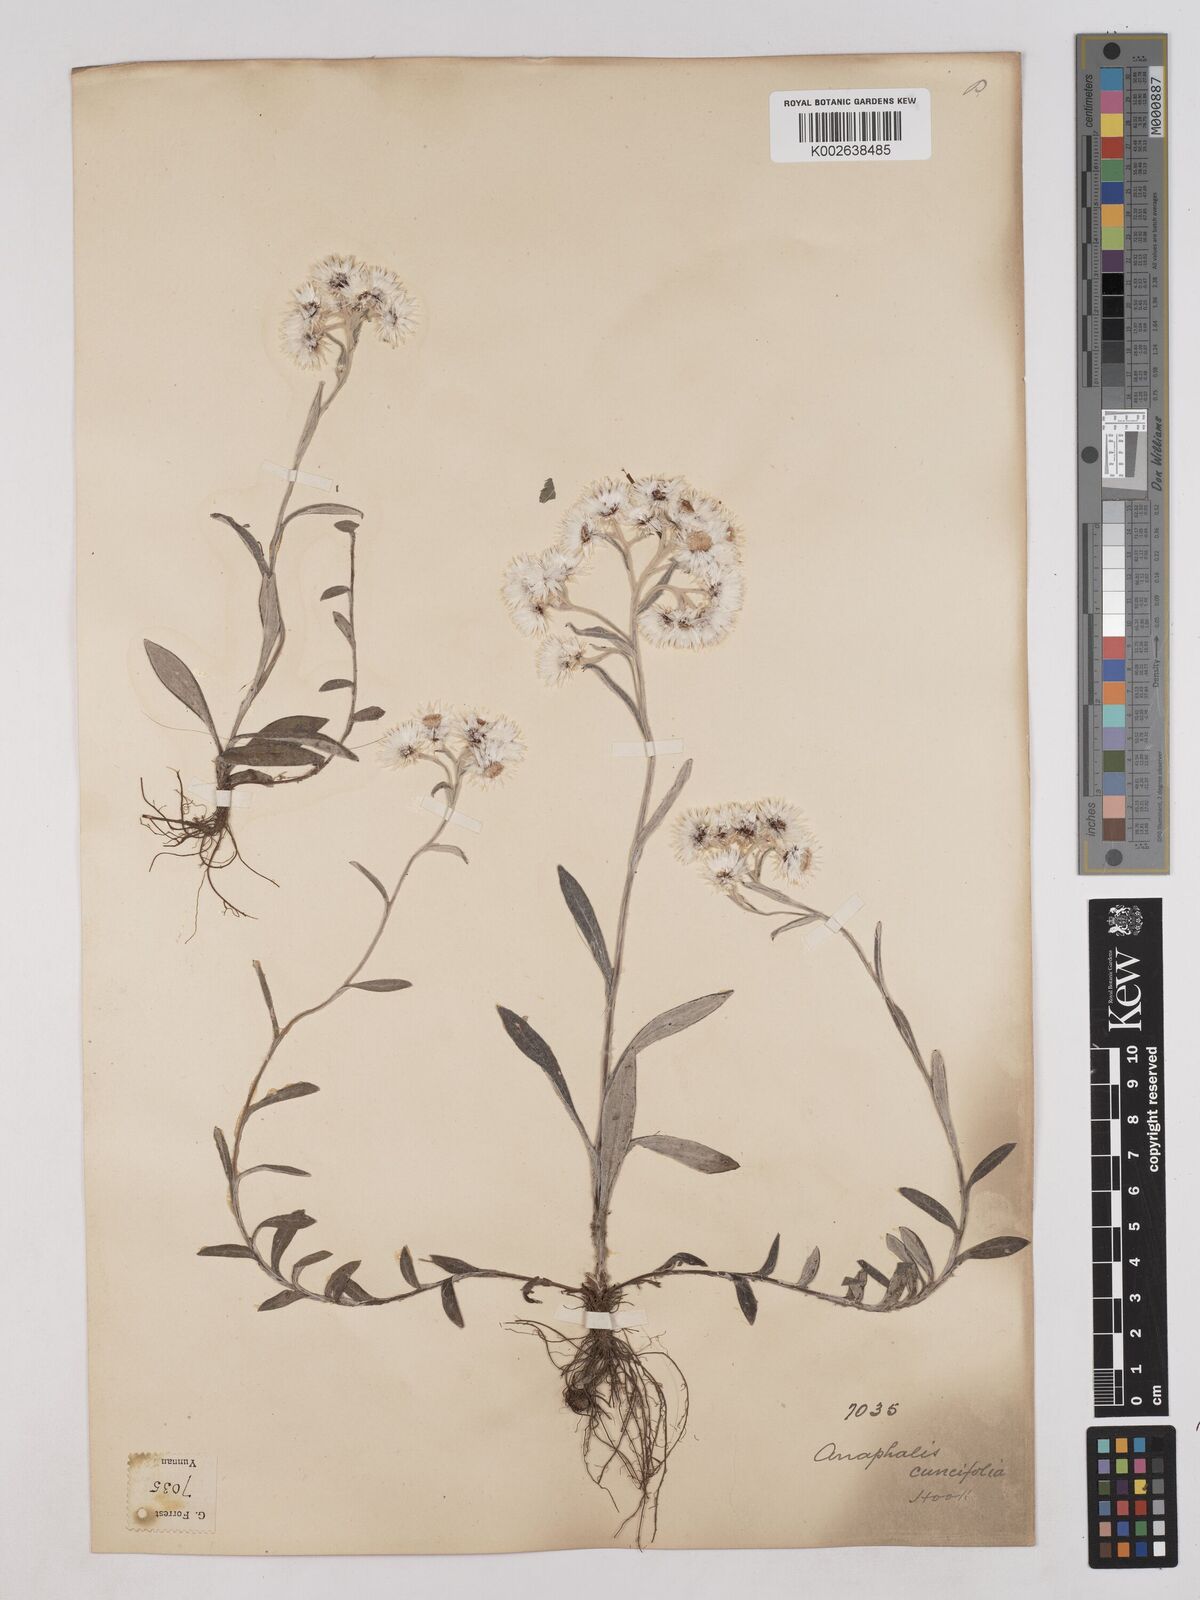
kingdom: Plantae
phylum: Tracheophyta
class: Magnoliopsida
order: Asterales
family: Asteraceae
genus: Anaphalis
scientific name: Anaphalis nepalensis
